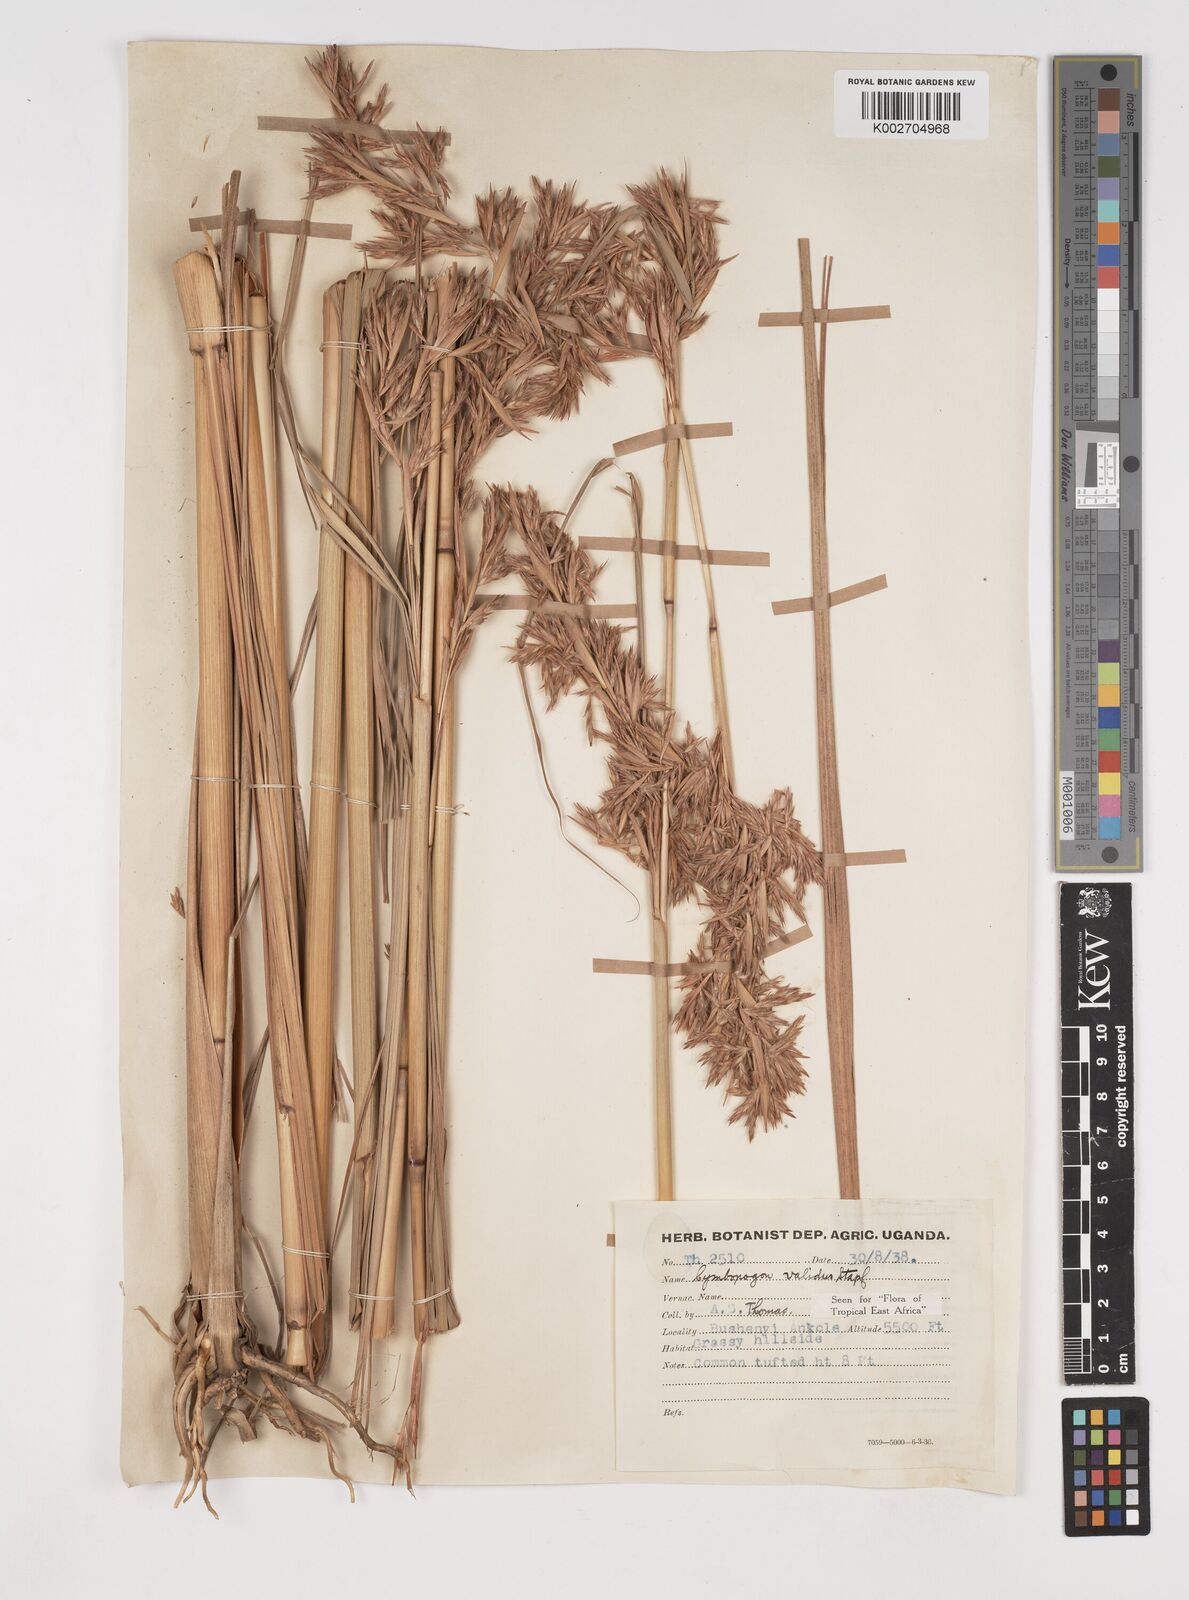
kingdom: Plantae
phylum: Tracheophyta
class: Liliopsida
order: Poales
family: Poaceae
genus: Cymbopogon
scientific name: Cymbopogon nardus
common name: Giant turpentine grass
